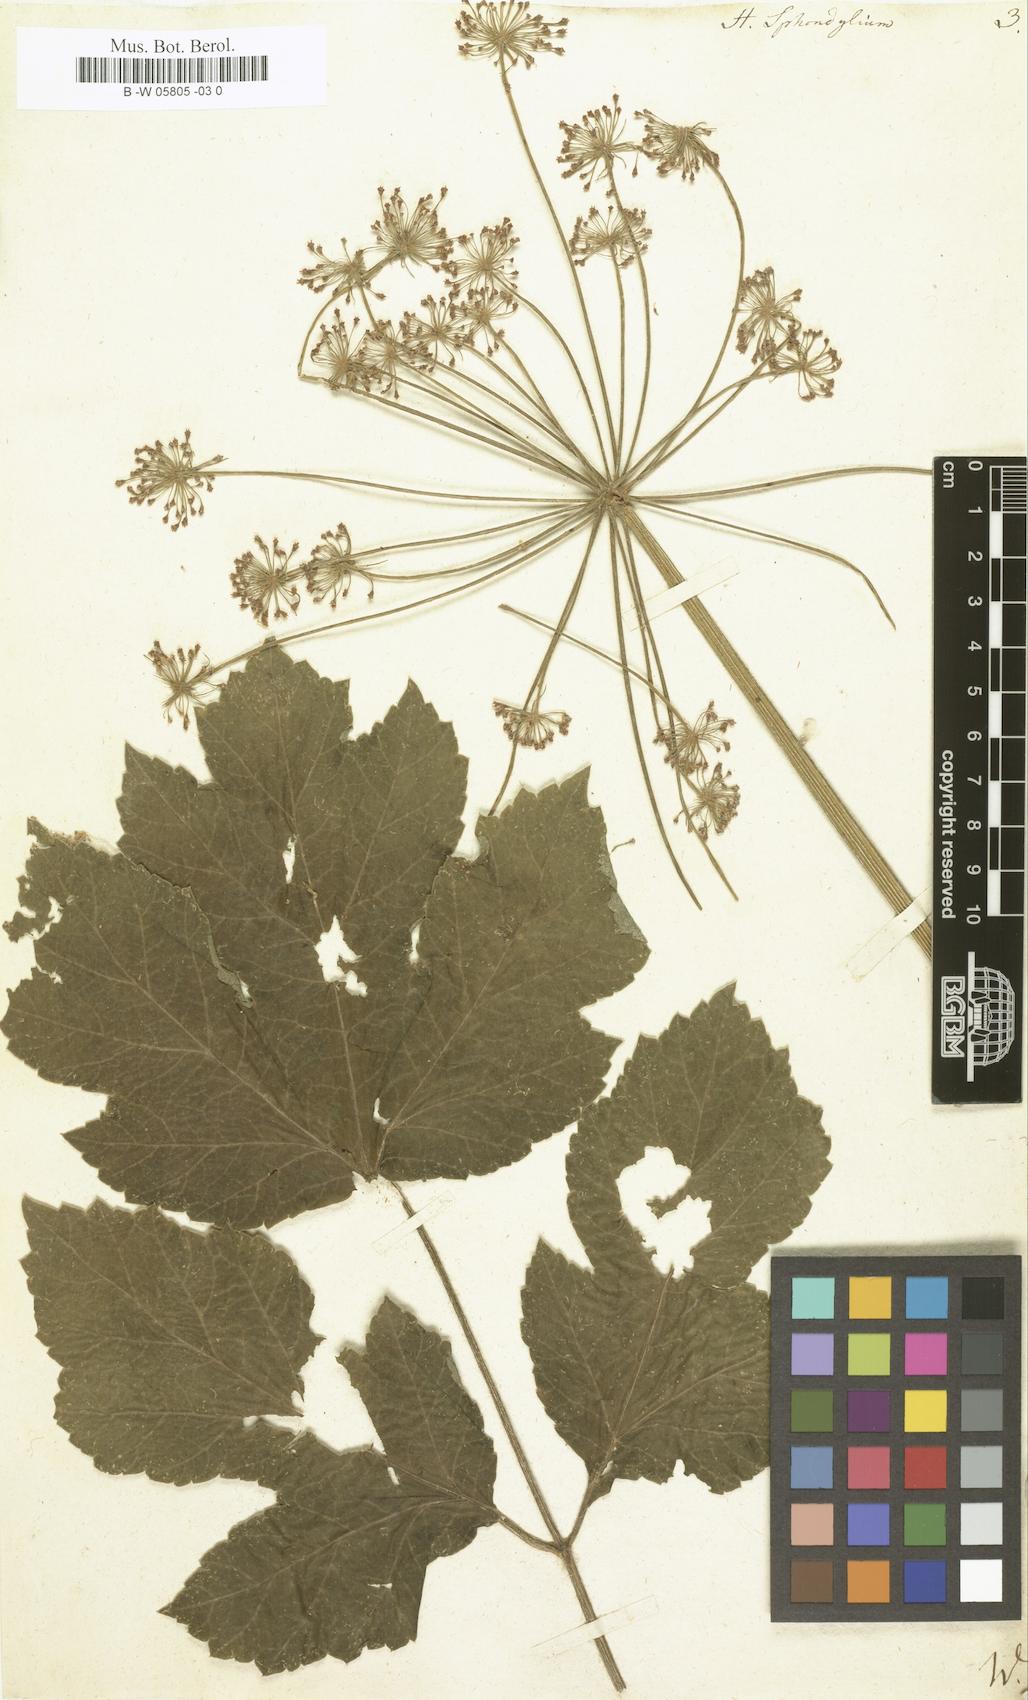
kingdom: Plantae
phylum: Tracheophyta
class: Magnoliopsida
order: Apiales
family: Apiaceae
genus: Heracleum
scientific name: Heracleum sphondylium
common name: Hogweed
